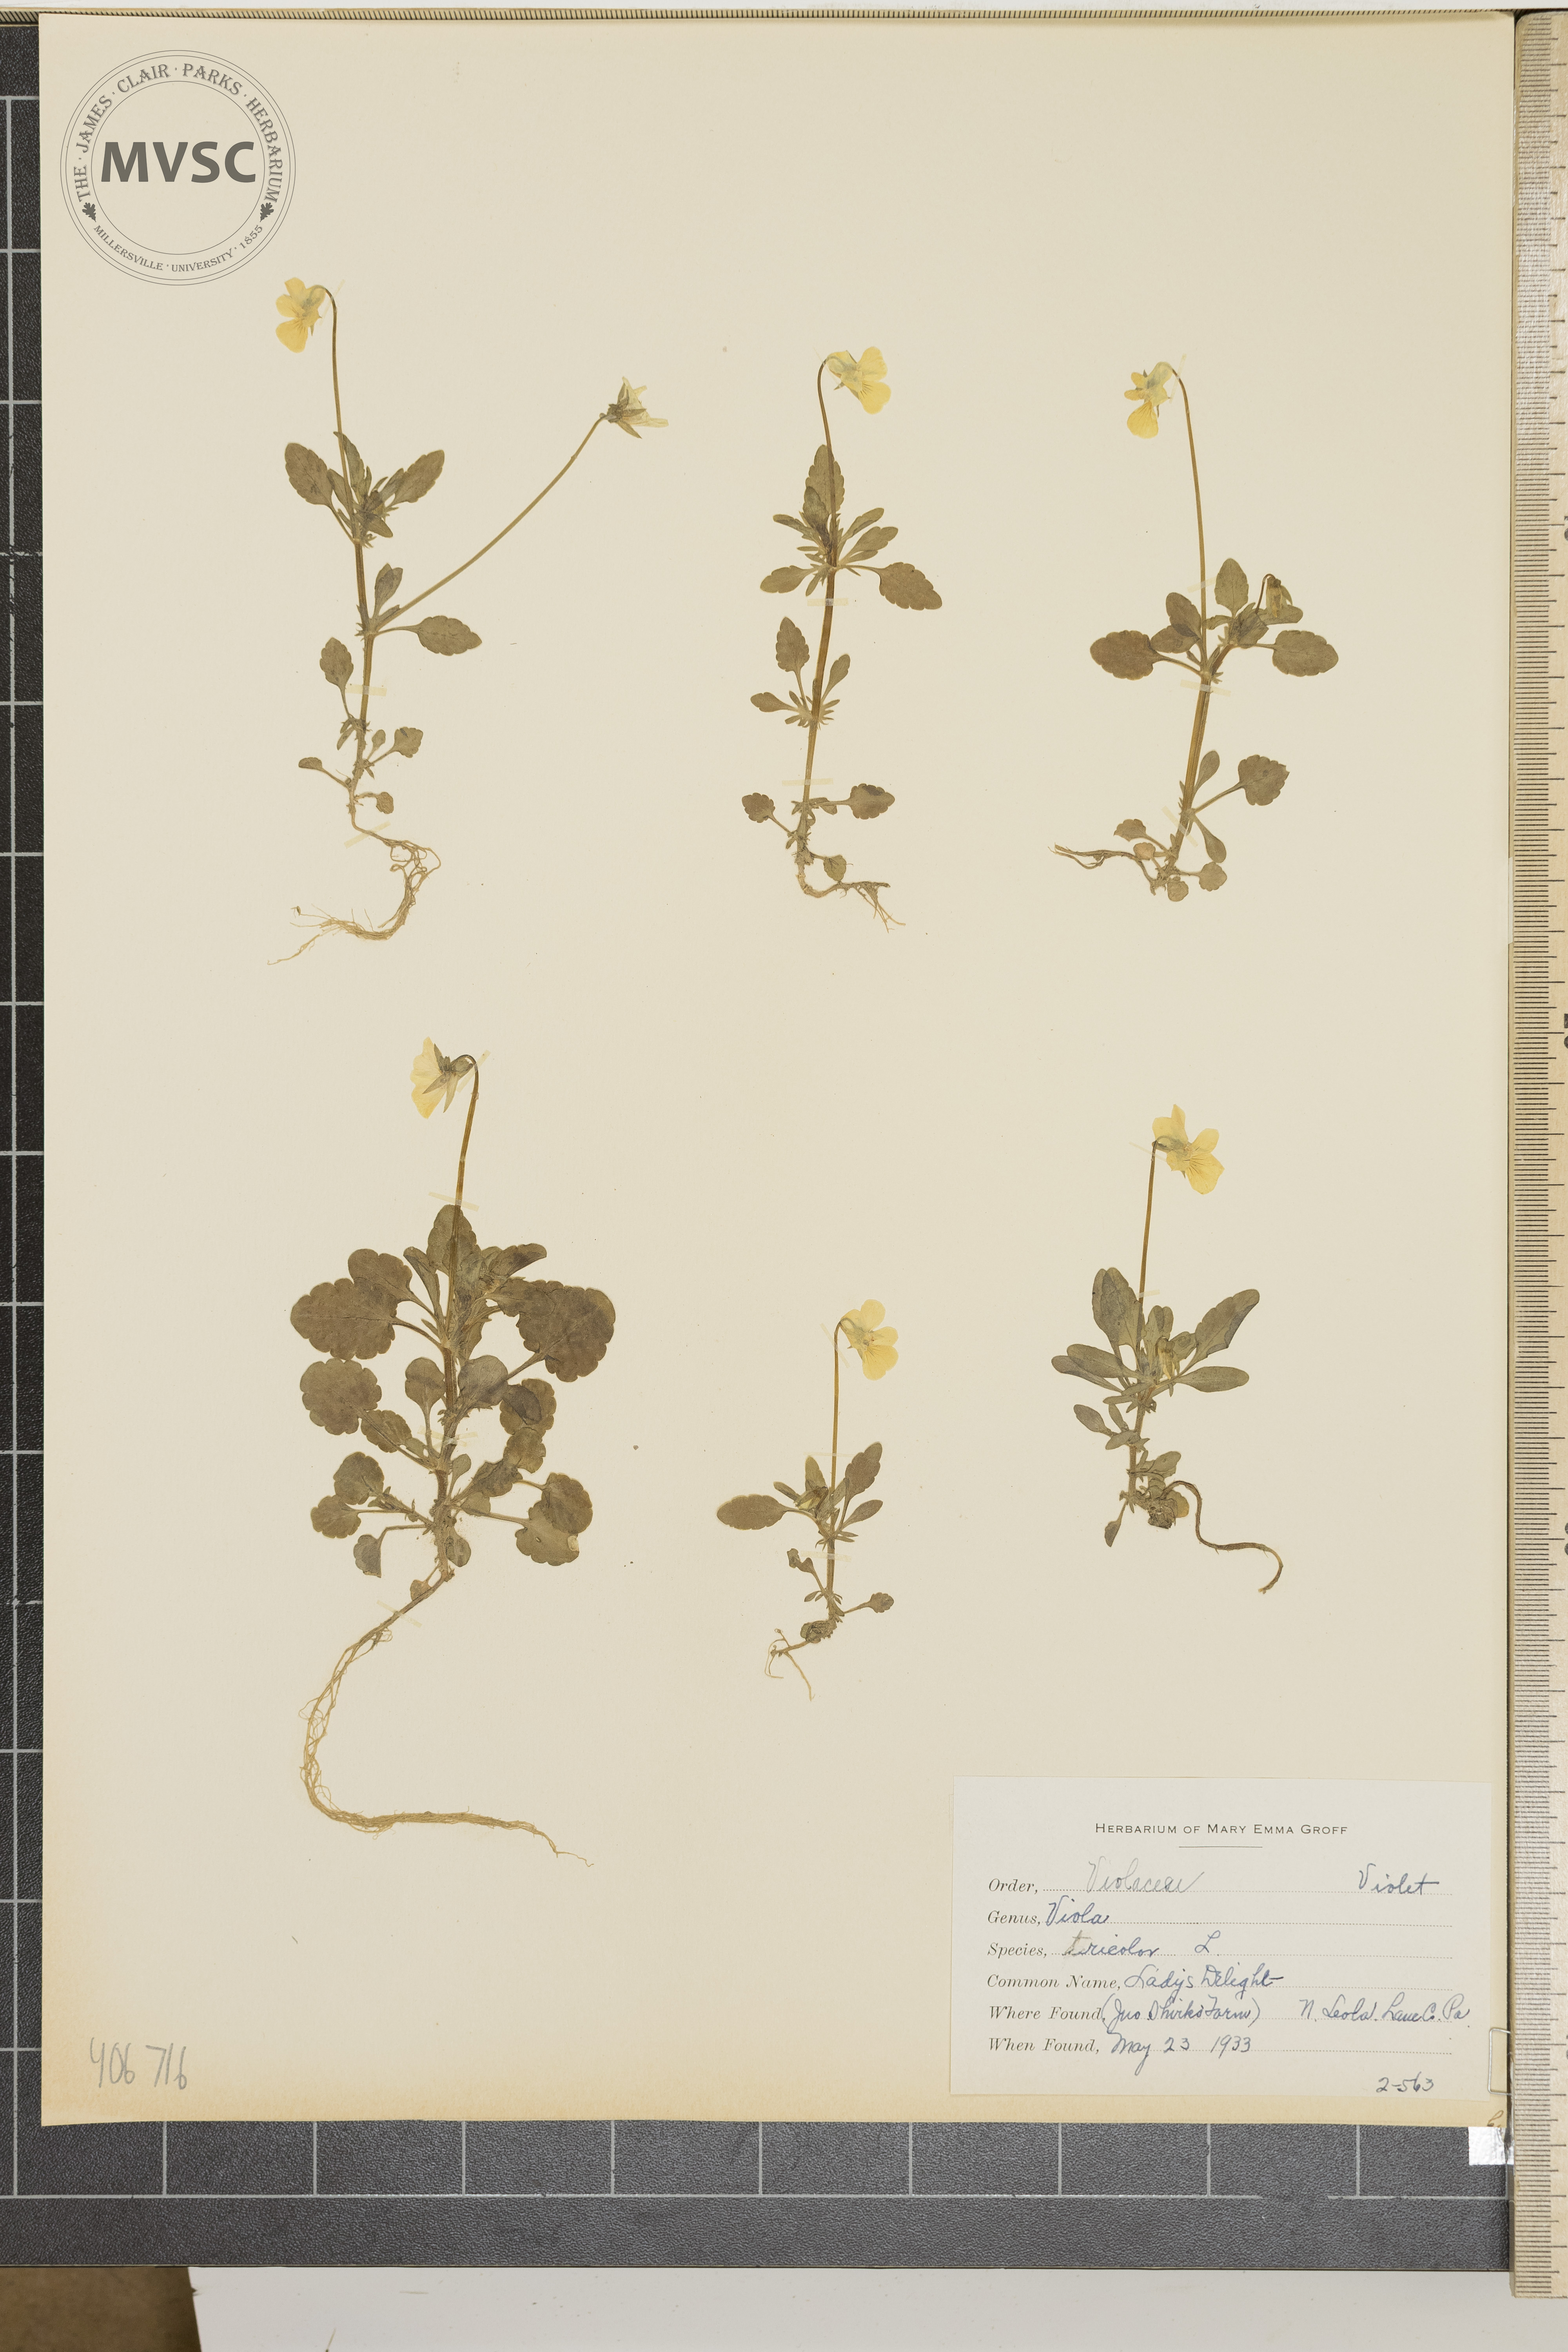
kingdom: Plantae
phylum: Tracheophyta
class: Magnoliopsida
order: Malpighiales
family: Violaceae
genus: Viola
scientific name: Viola tricolor
